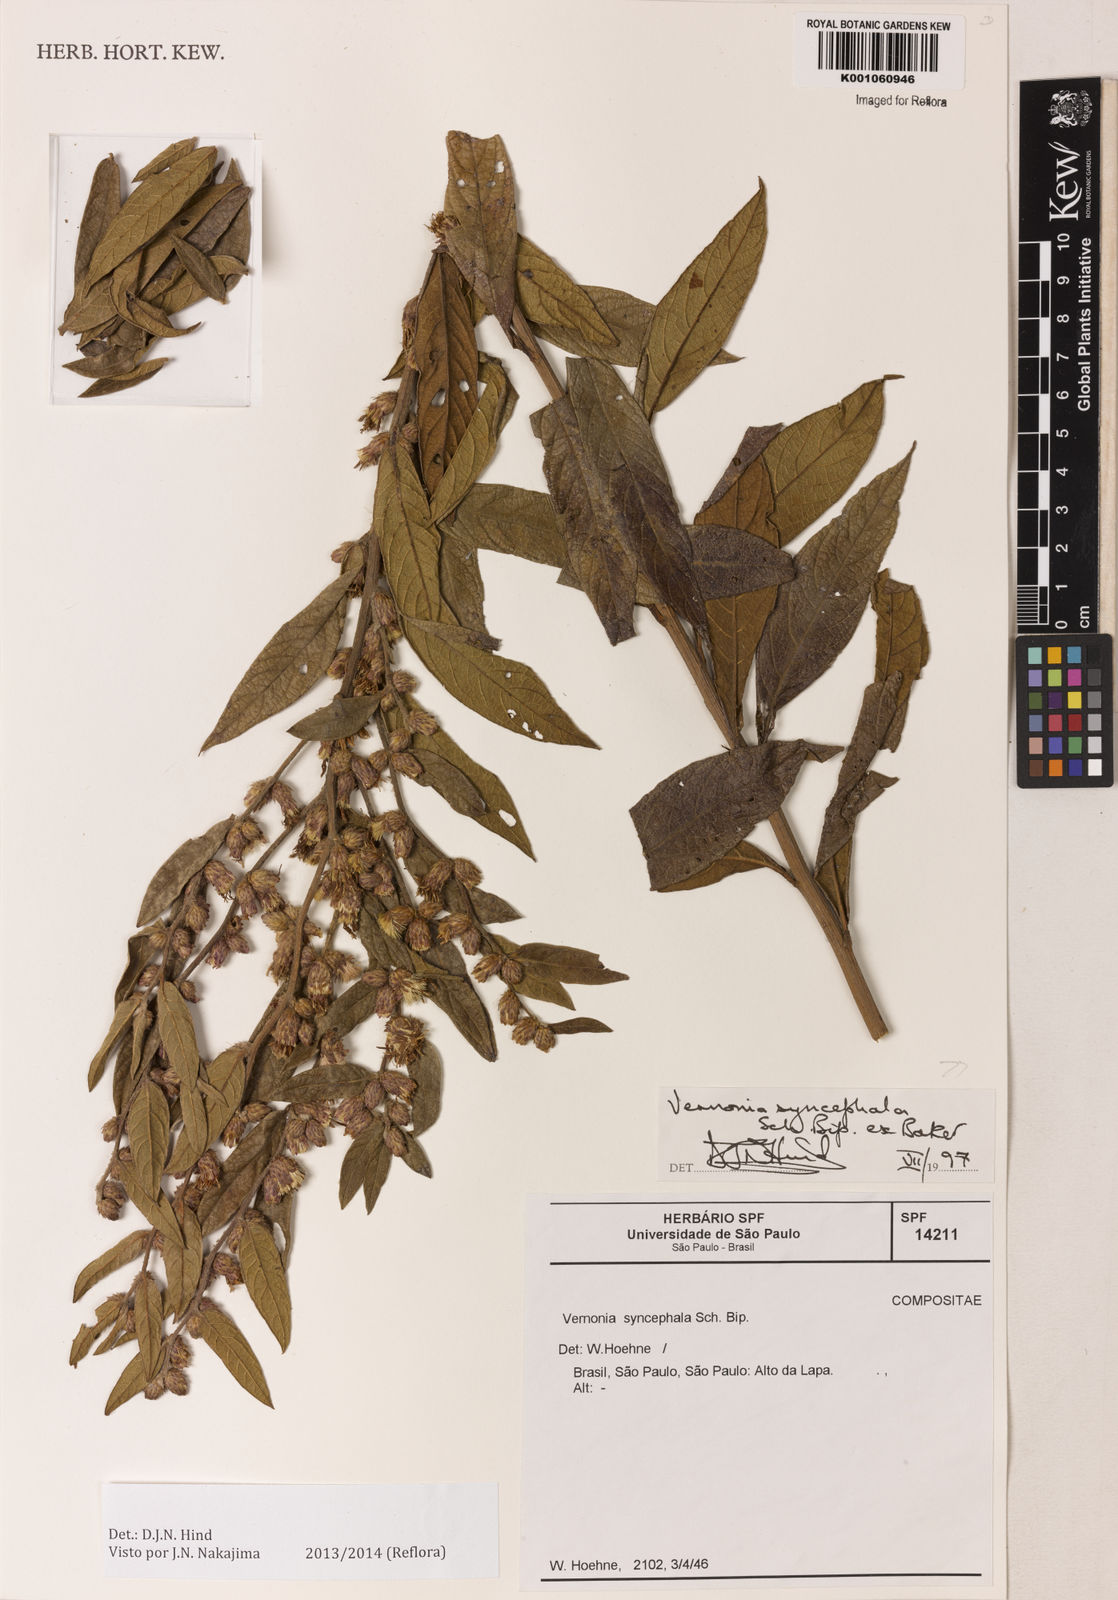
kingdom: Plantae
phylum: Tracheophyta
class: Magnoliopsida
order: Asterales
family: Asteraceae
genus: Lessingianthus
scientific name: Lessingianthus syncephalus
